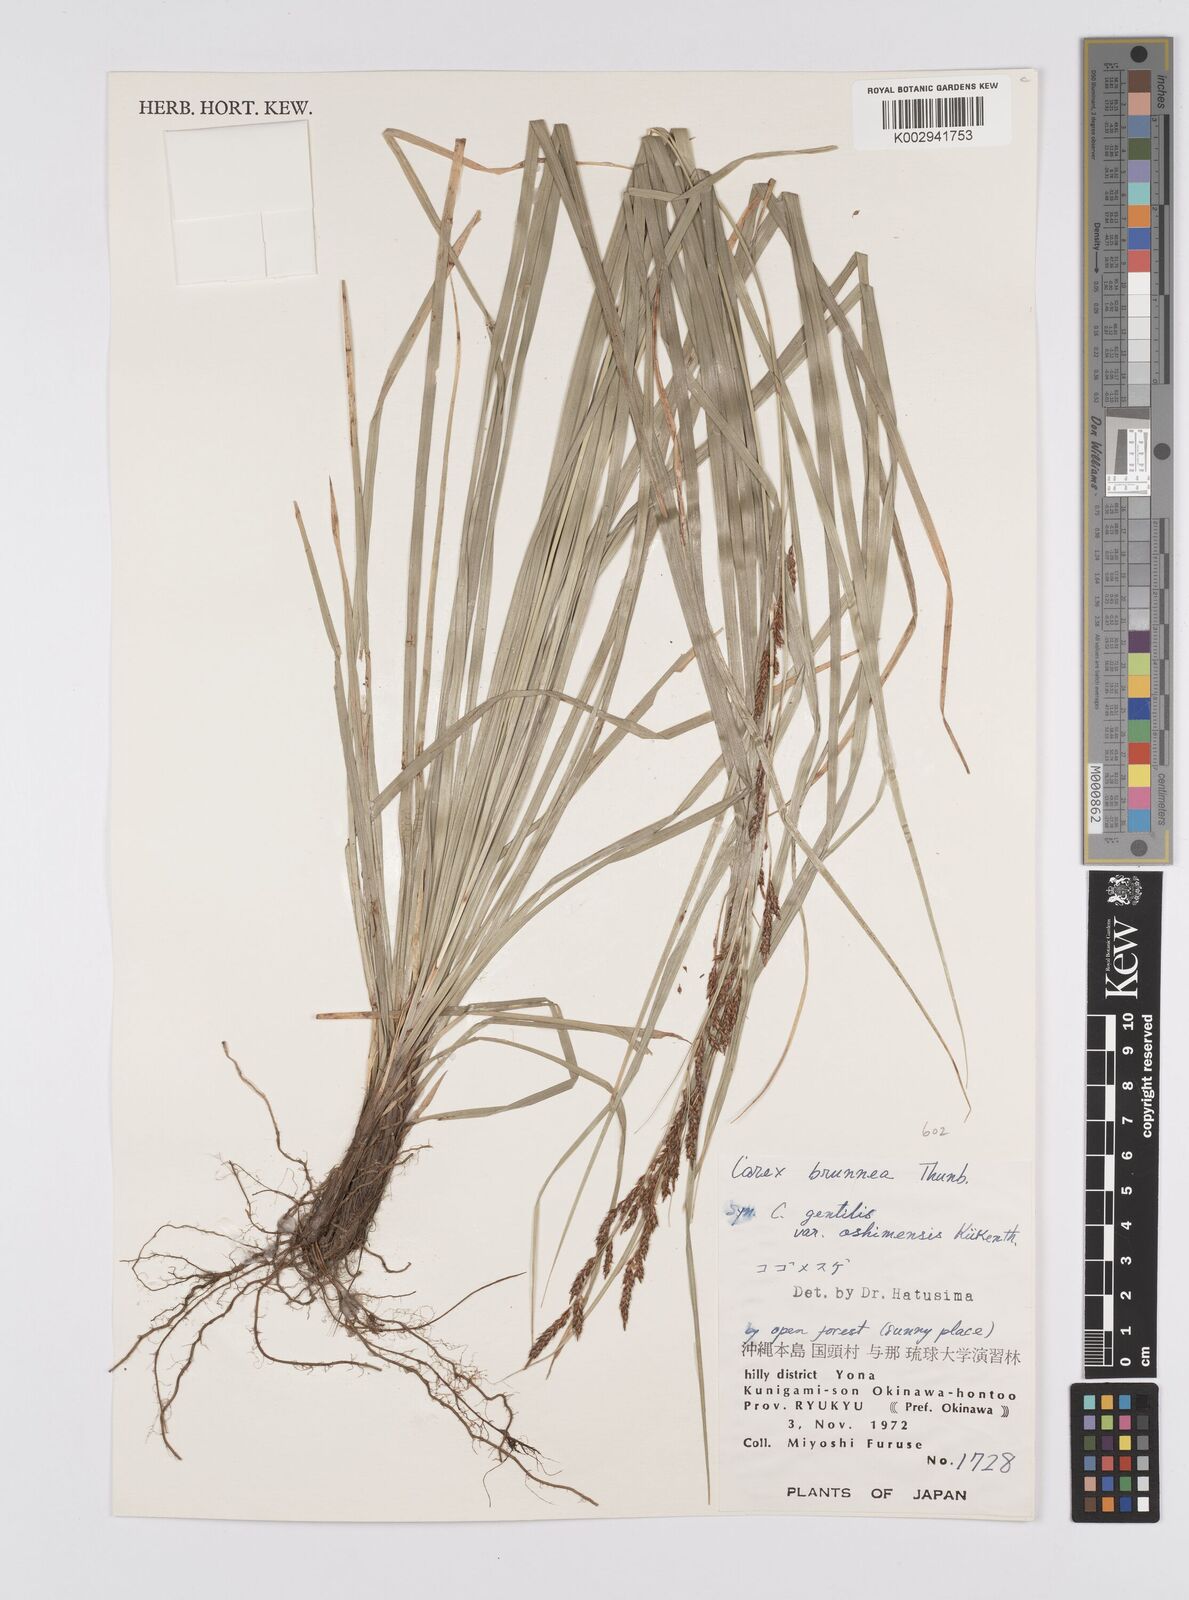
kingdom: Plantae
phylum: Tracheophyta
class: Liliopsida
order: Poales
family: Cyperaceae
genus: Carex
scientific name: Carex brunnea
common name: Greater brown sedge
